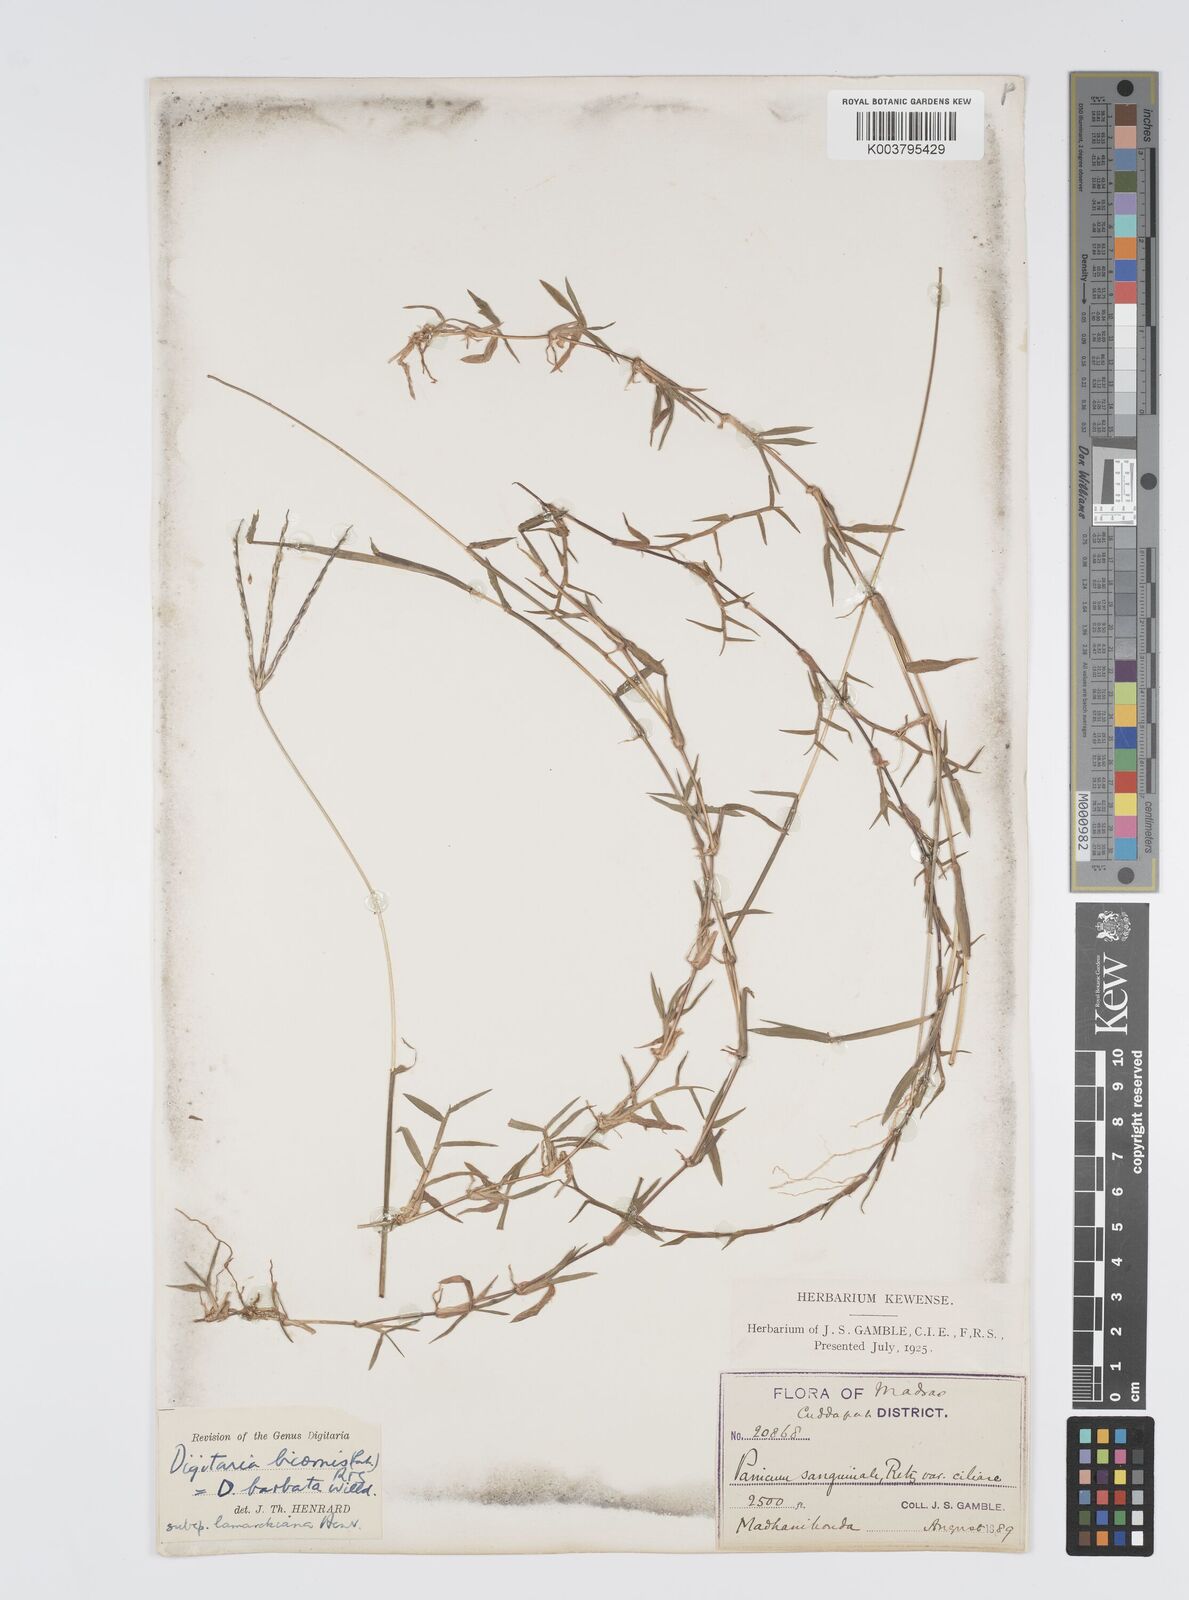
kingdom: Plantae
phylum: Tracheophyta
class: Liliopsida
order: Poales
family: Poaceae
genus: Digitaria
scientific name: Digitaria bicornis
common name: Asian crabgrass
